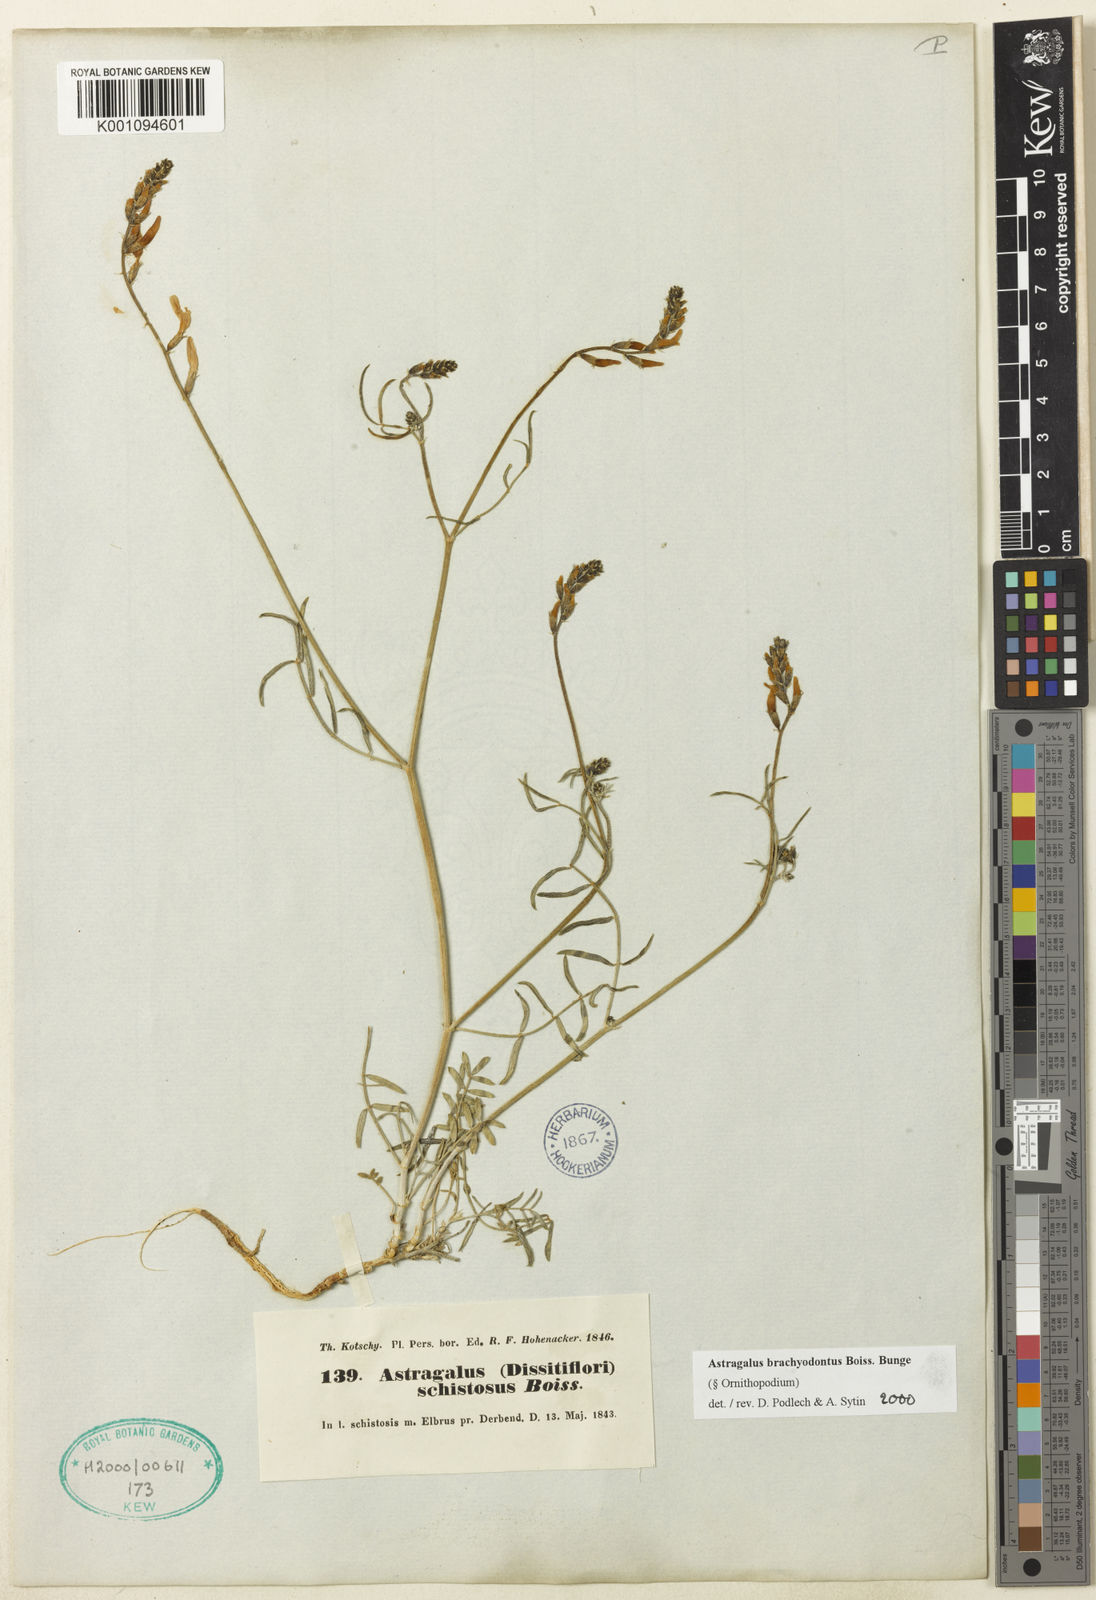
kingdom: Plantae
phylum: Tracheophyta
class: Magnoliopsida
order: Fabales
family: Fabaceae
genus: Astragalus
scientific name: Astragalus
